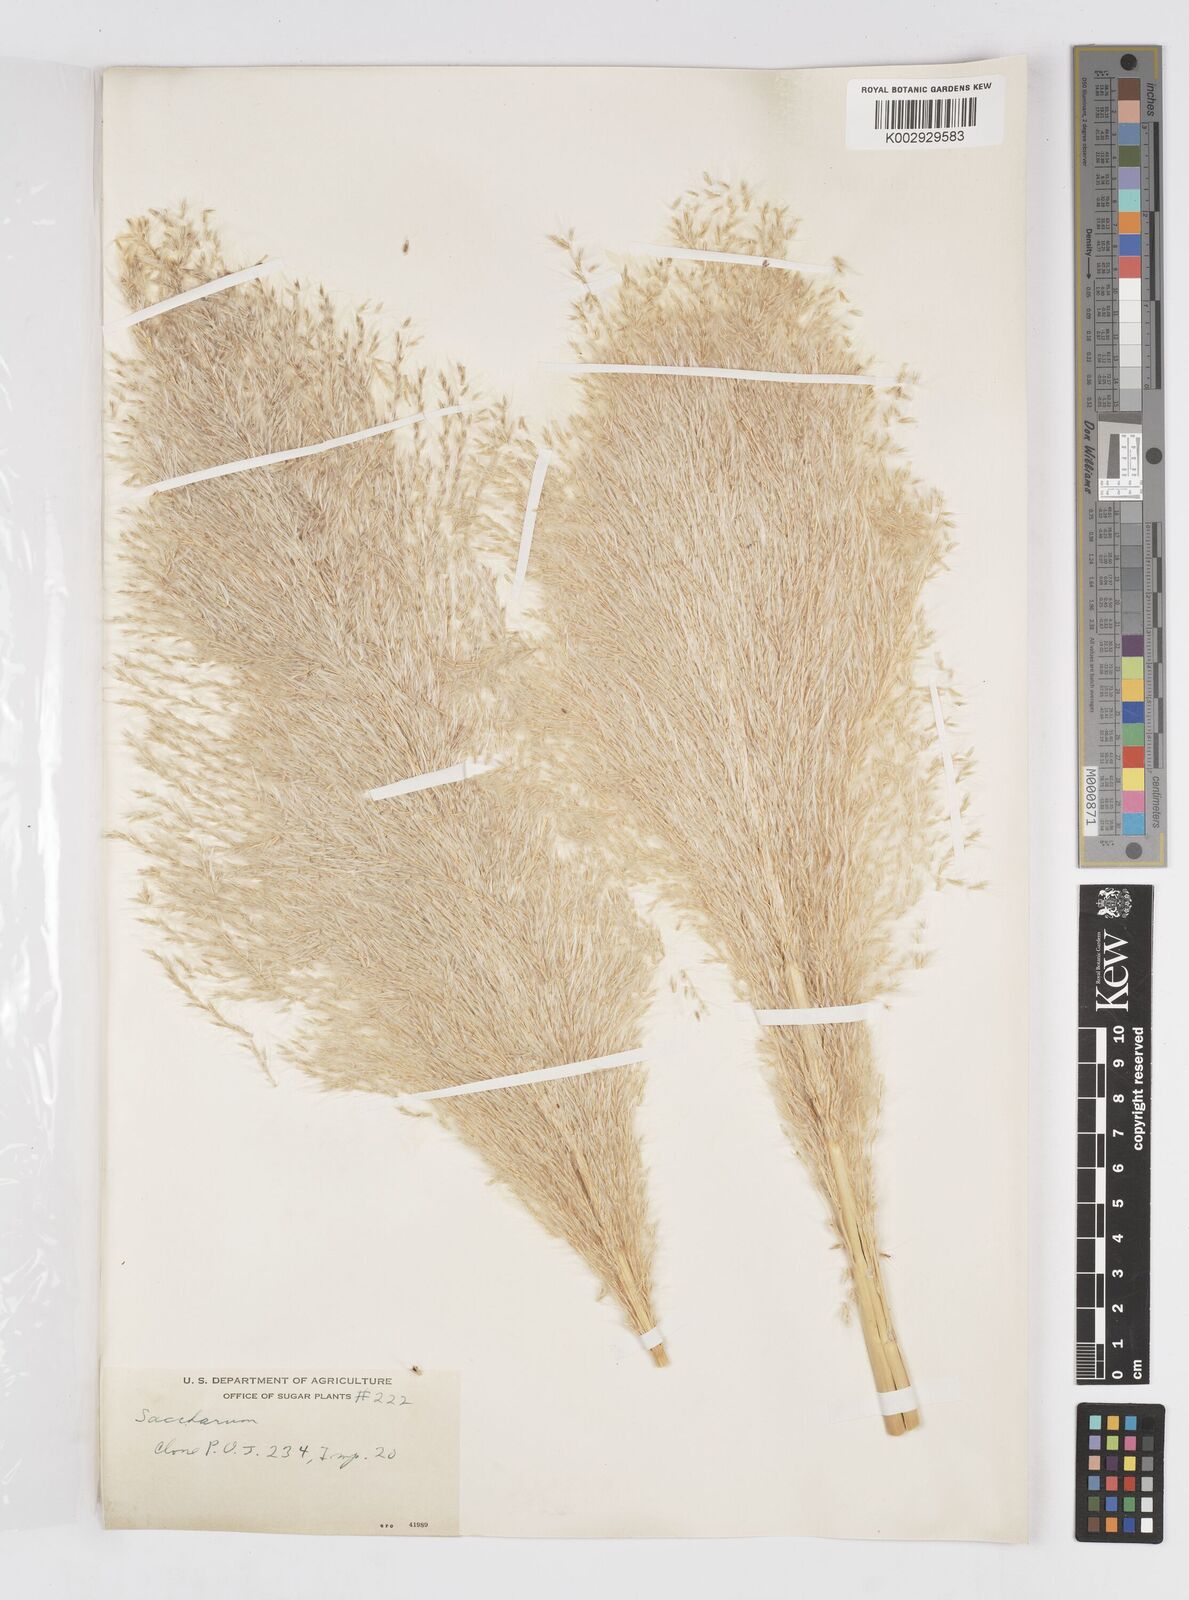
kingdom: Plantae
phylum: Tracheophyta
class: Liliopsida
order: Poales
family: Poaceae
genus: Saccharum
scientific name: Saccharum officinarum
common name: Sugarcane
